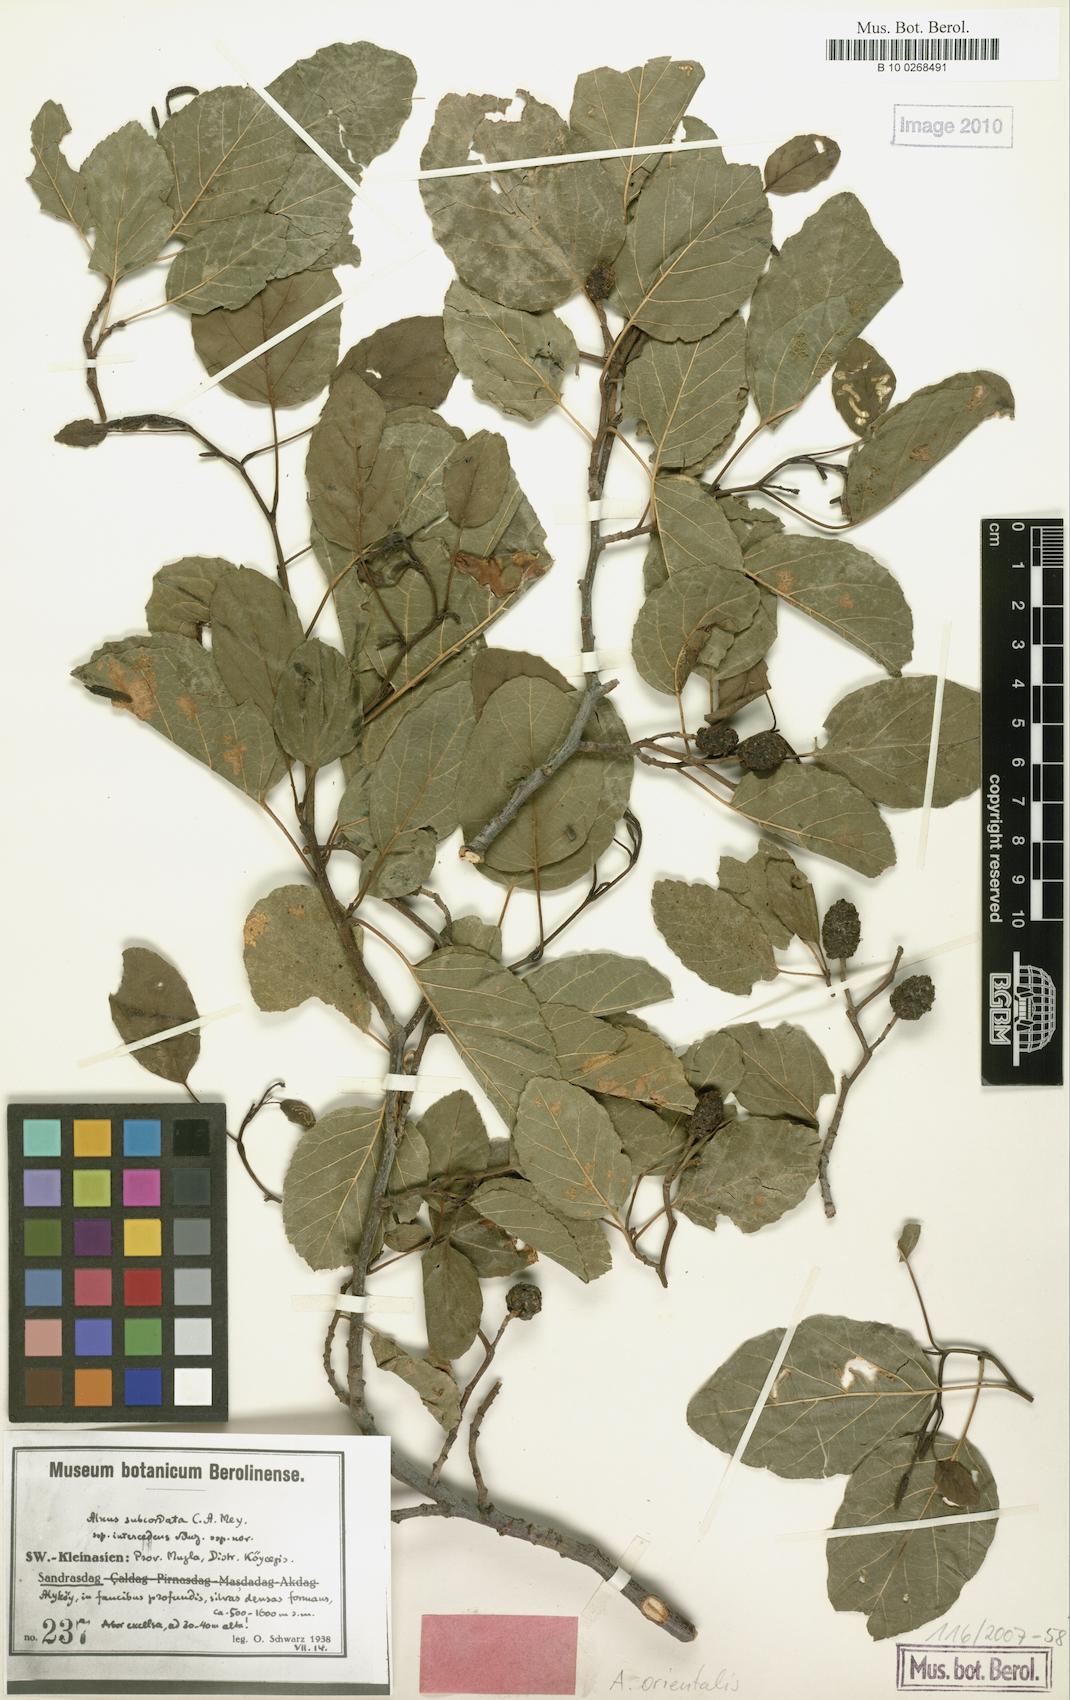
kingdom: Plantae
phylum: Tracheophyta
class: Magnoliopsida
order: Fagales
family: Betulaceae
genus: Alnus
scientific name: Alnus orientalis
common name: Oriental alder
